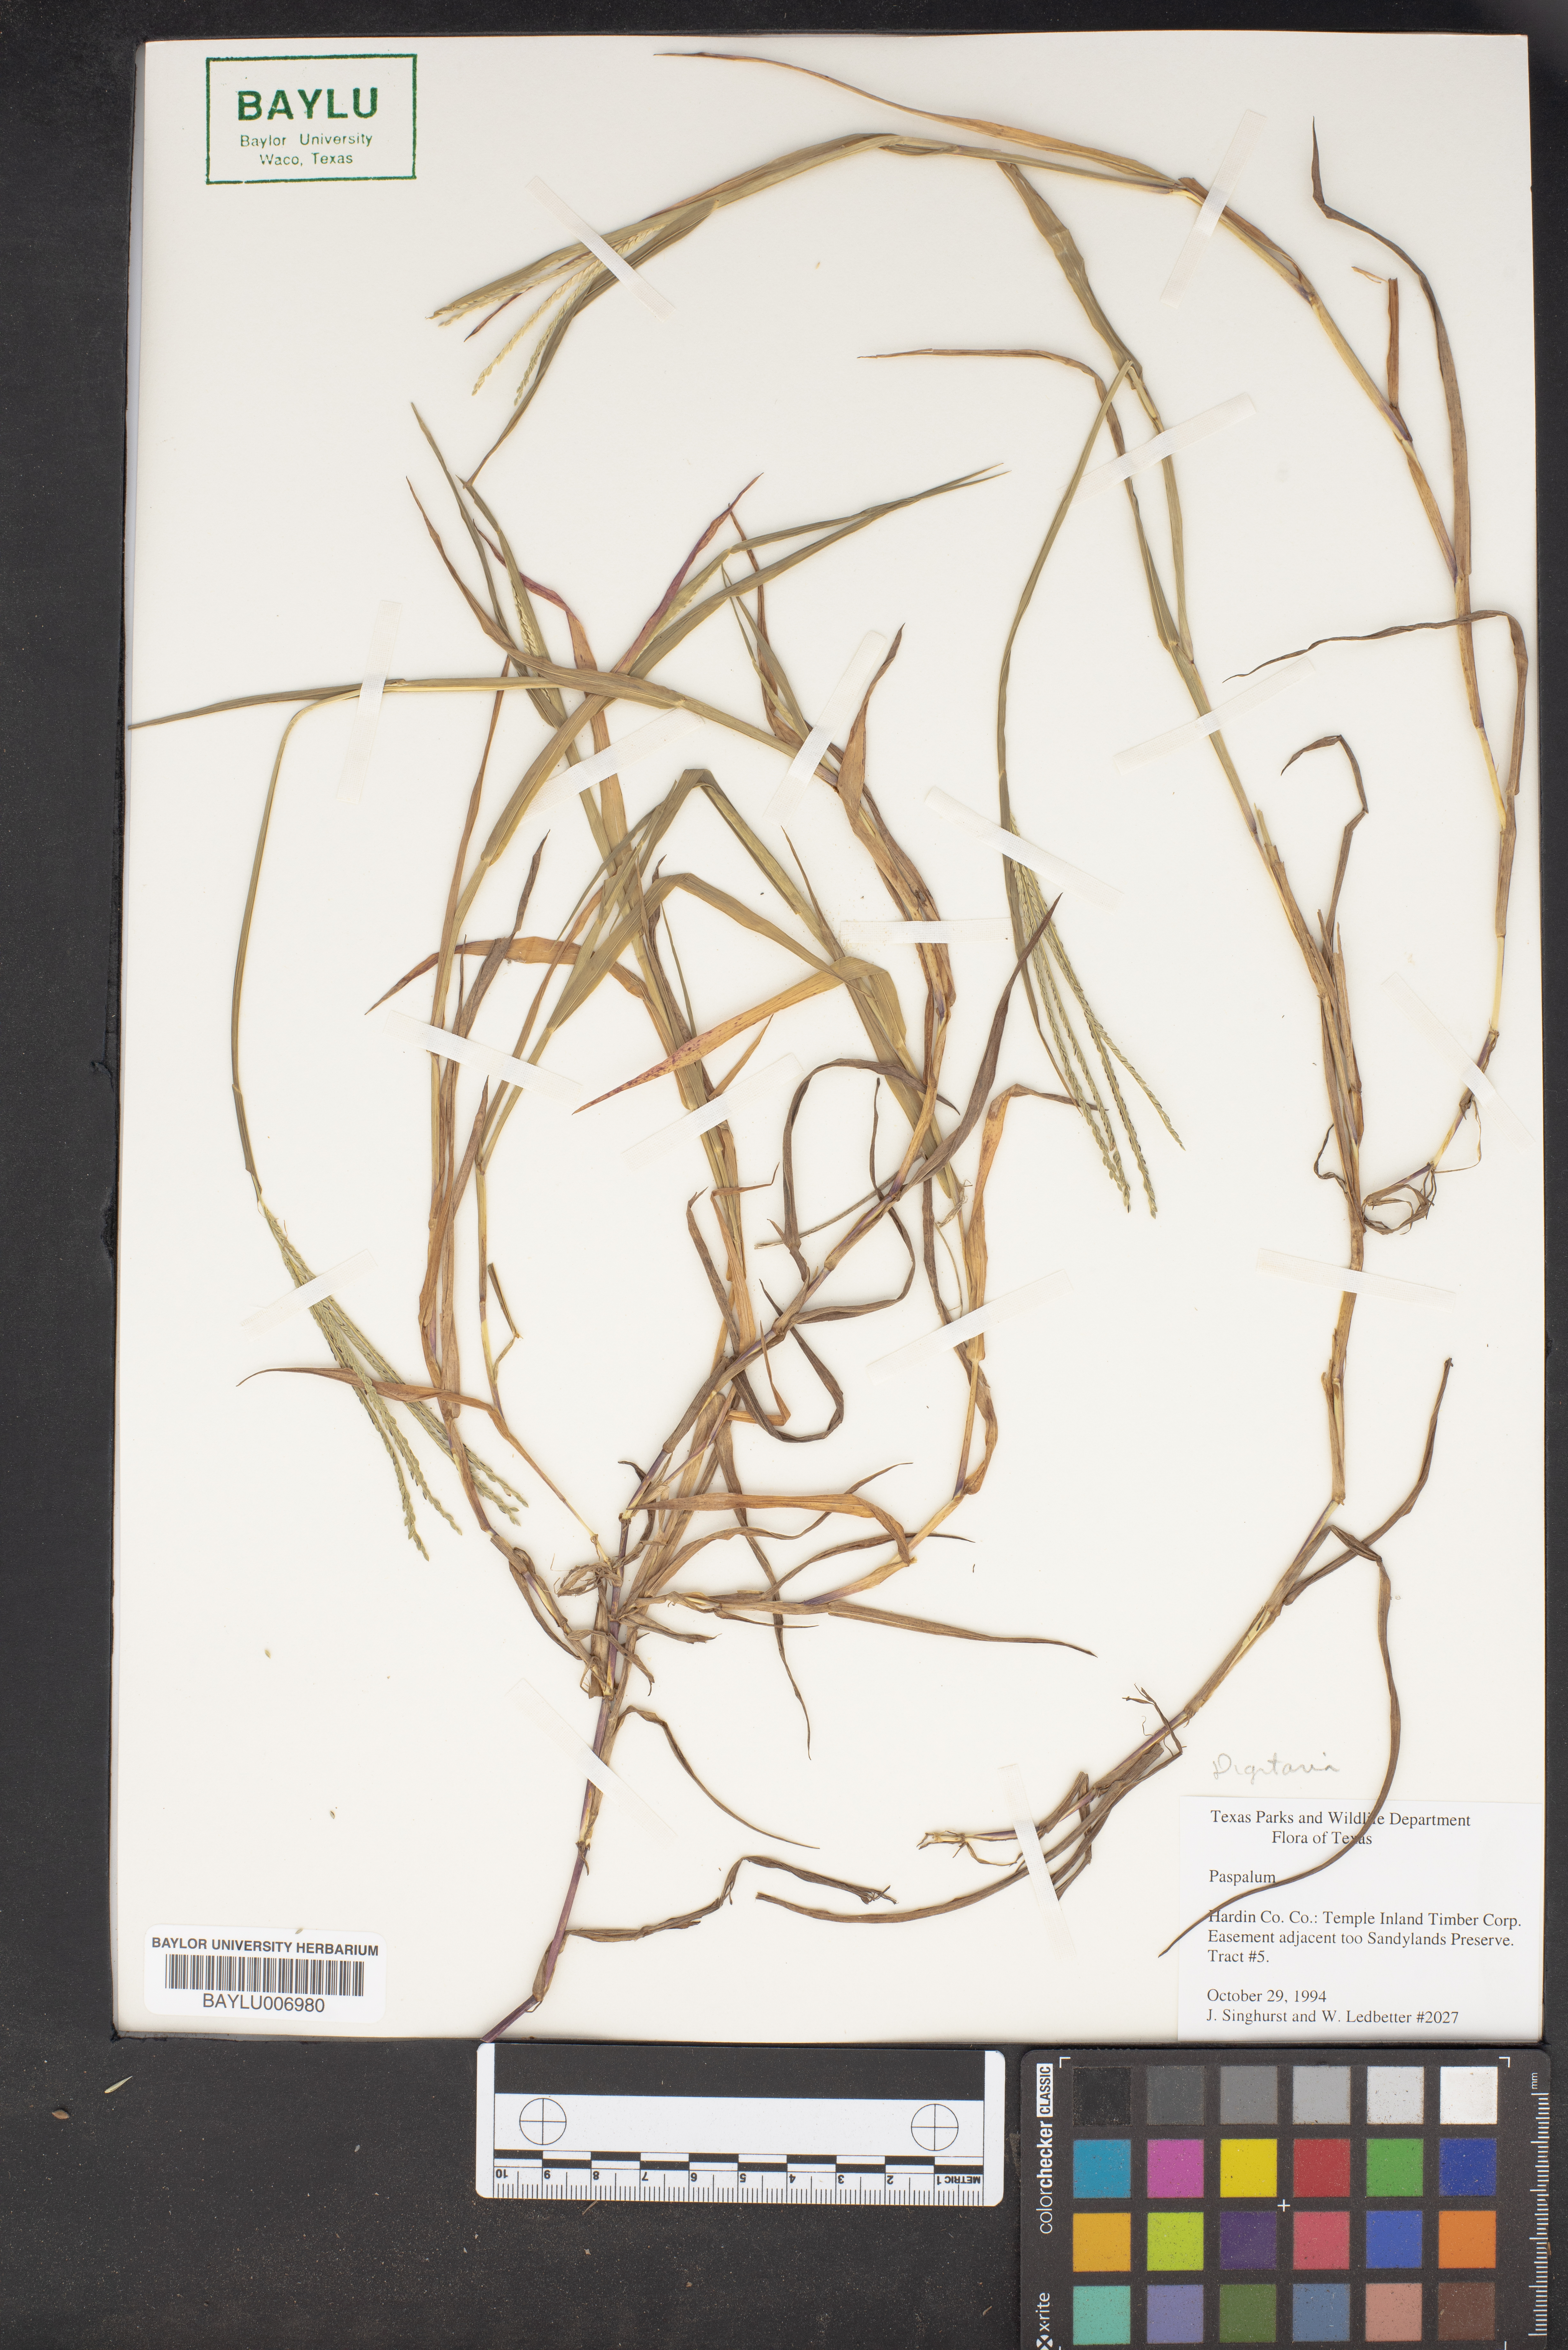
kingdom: Plantae
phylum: Tracheophyta
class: Liliopsida
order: Poales
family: Poaceae
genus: Paspalum
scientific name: Paspalum
